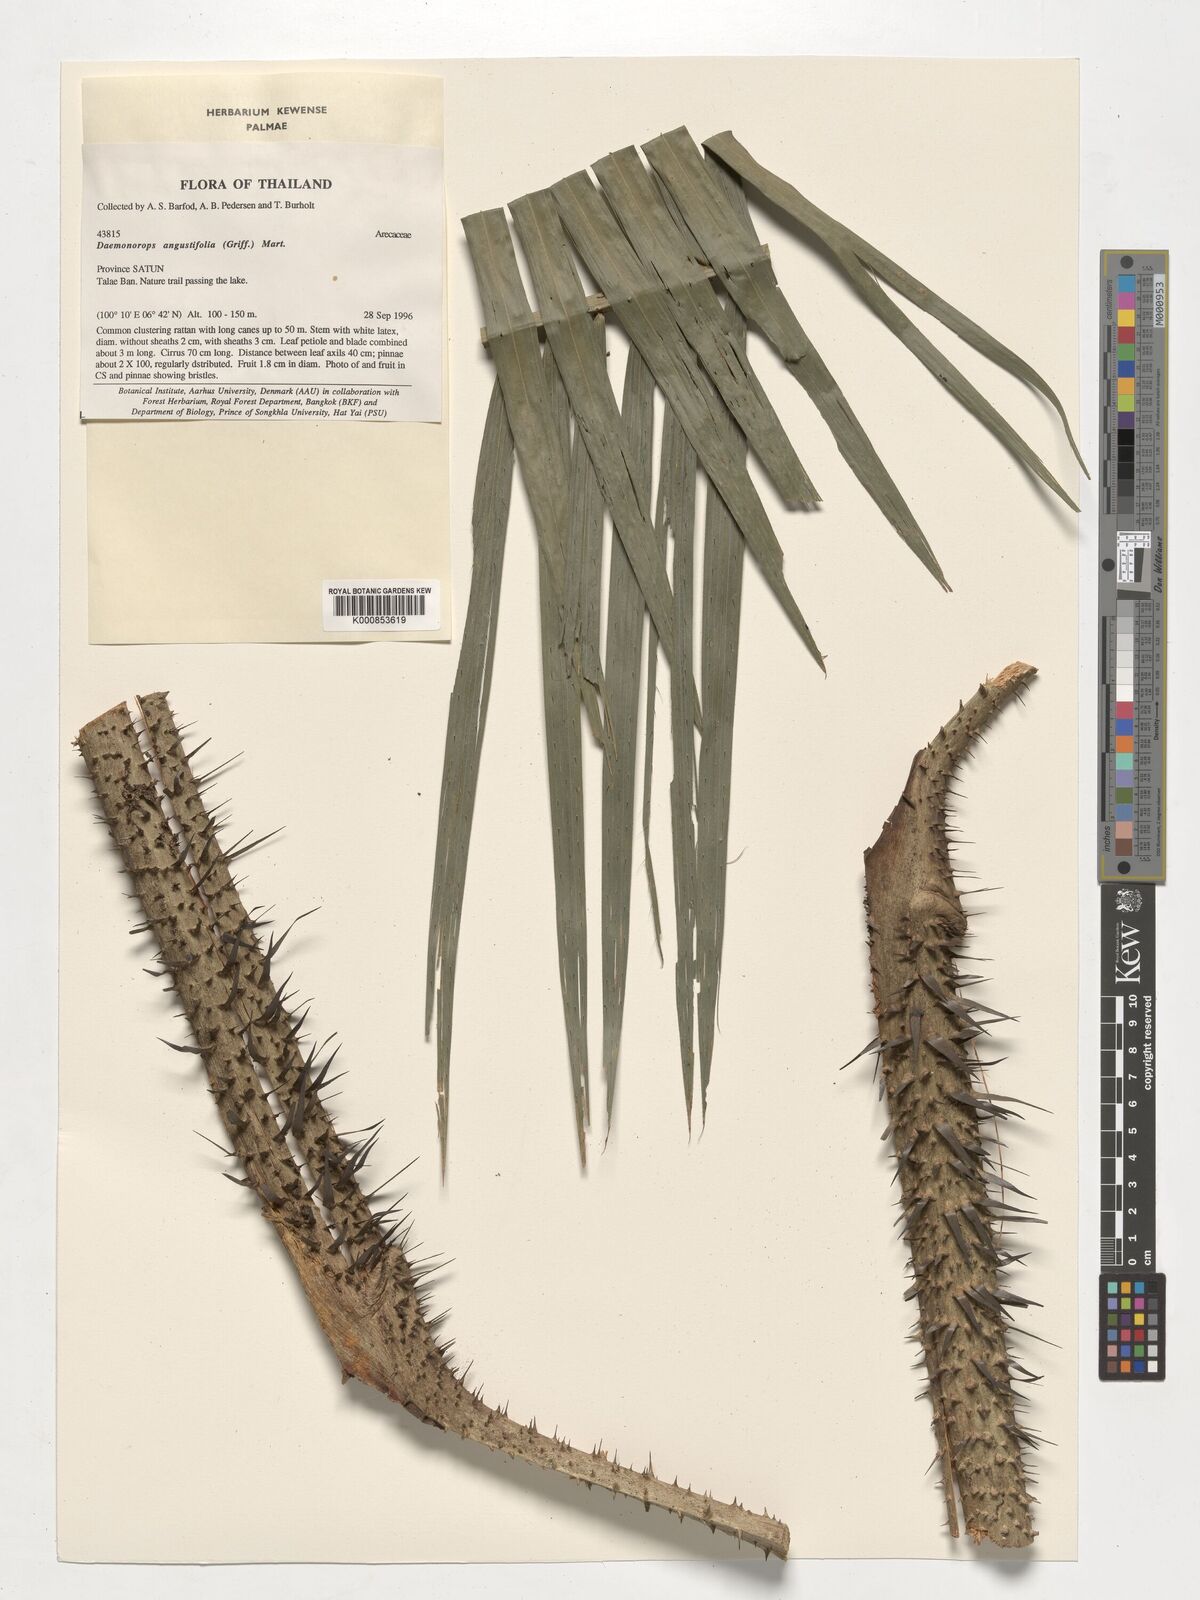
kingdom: Plantae
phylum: Tracheophyta
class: Liliopsida
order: Arecales
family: Arecaceae
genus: Calamus
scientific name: Calamus melanochaetes
